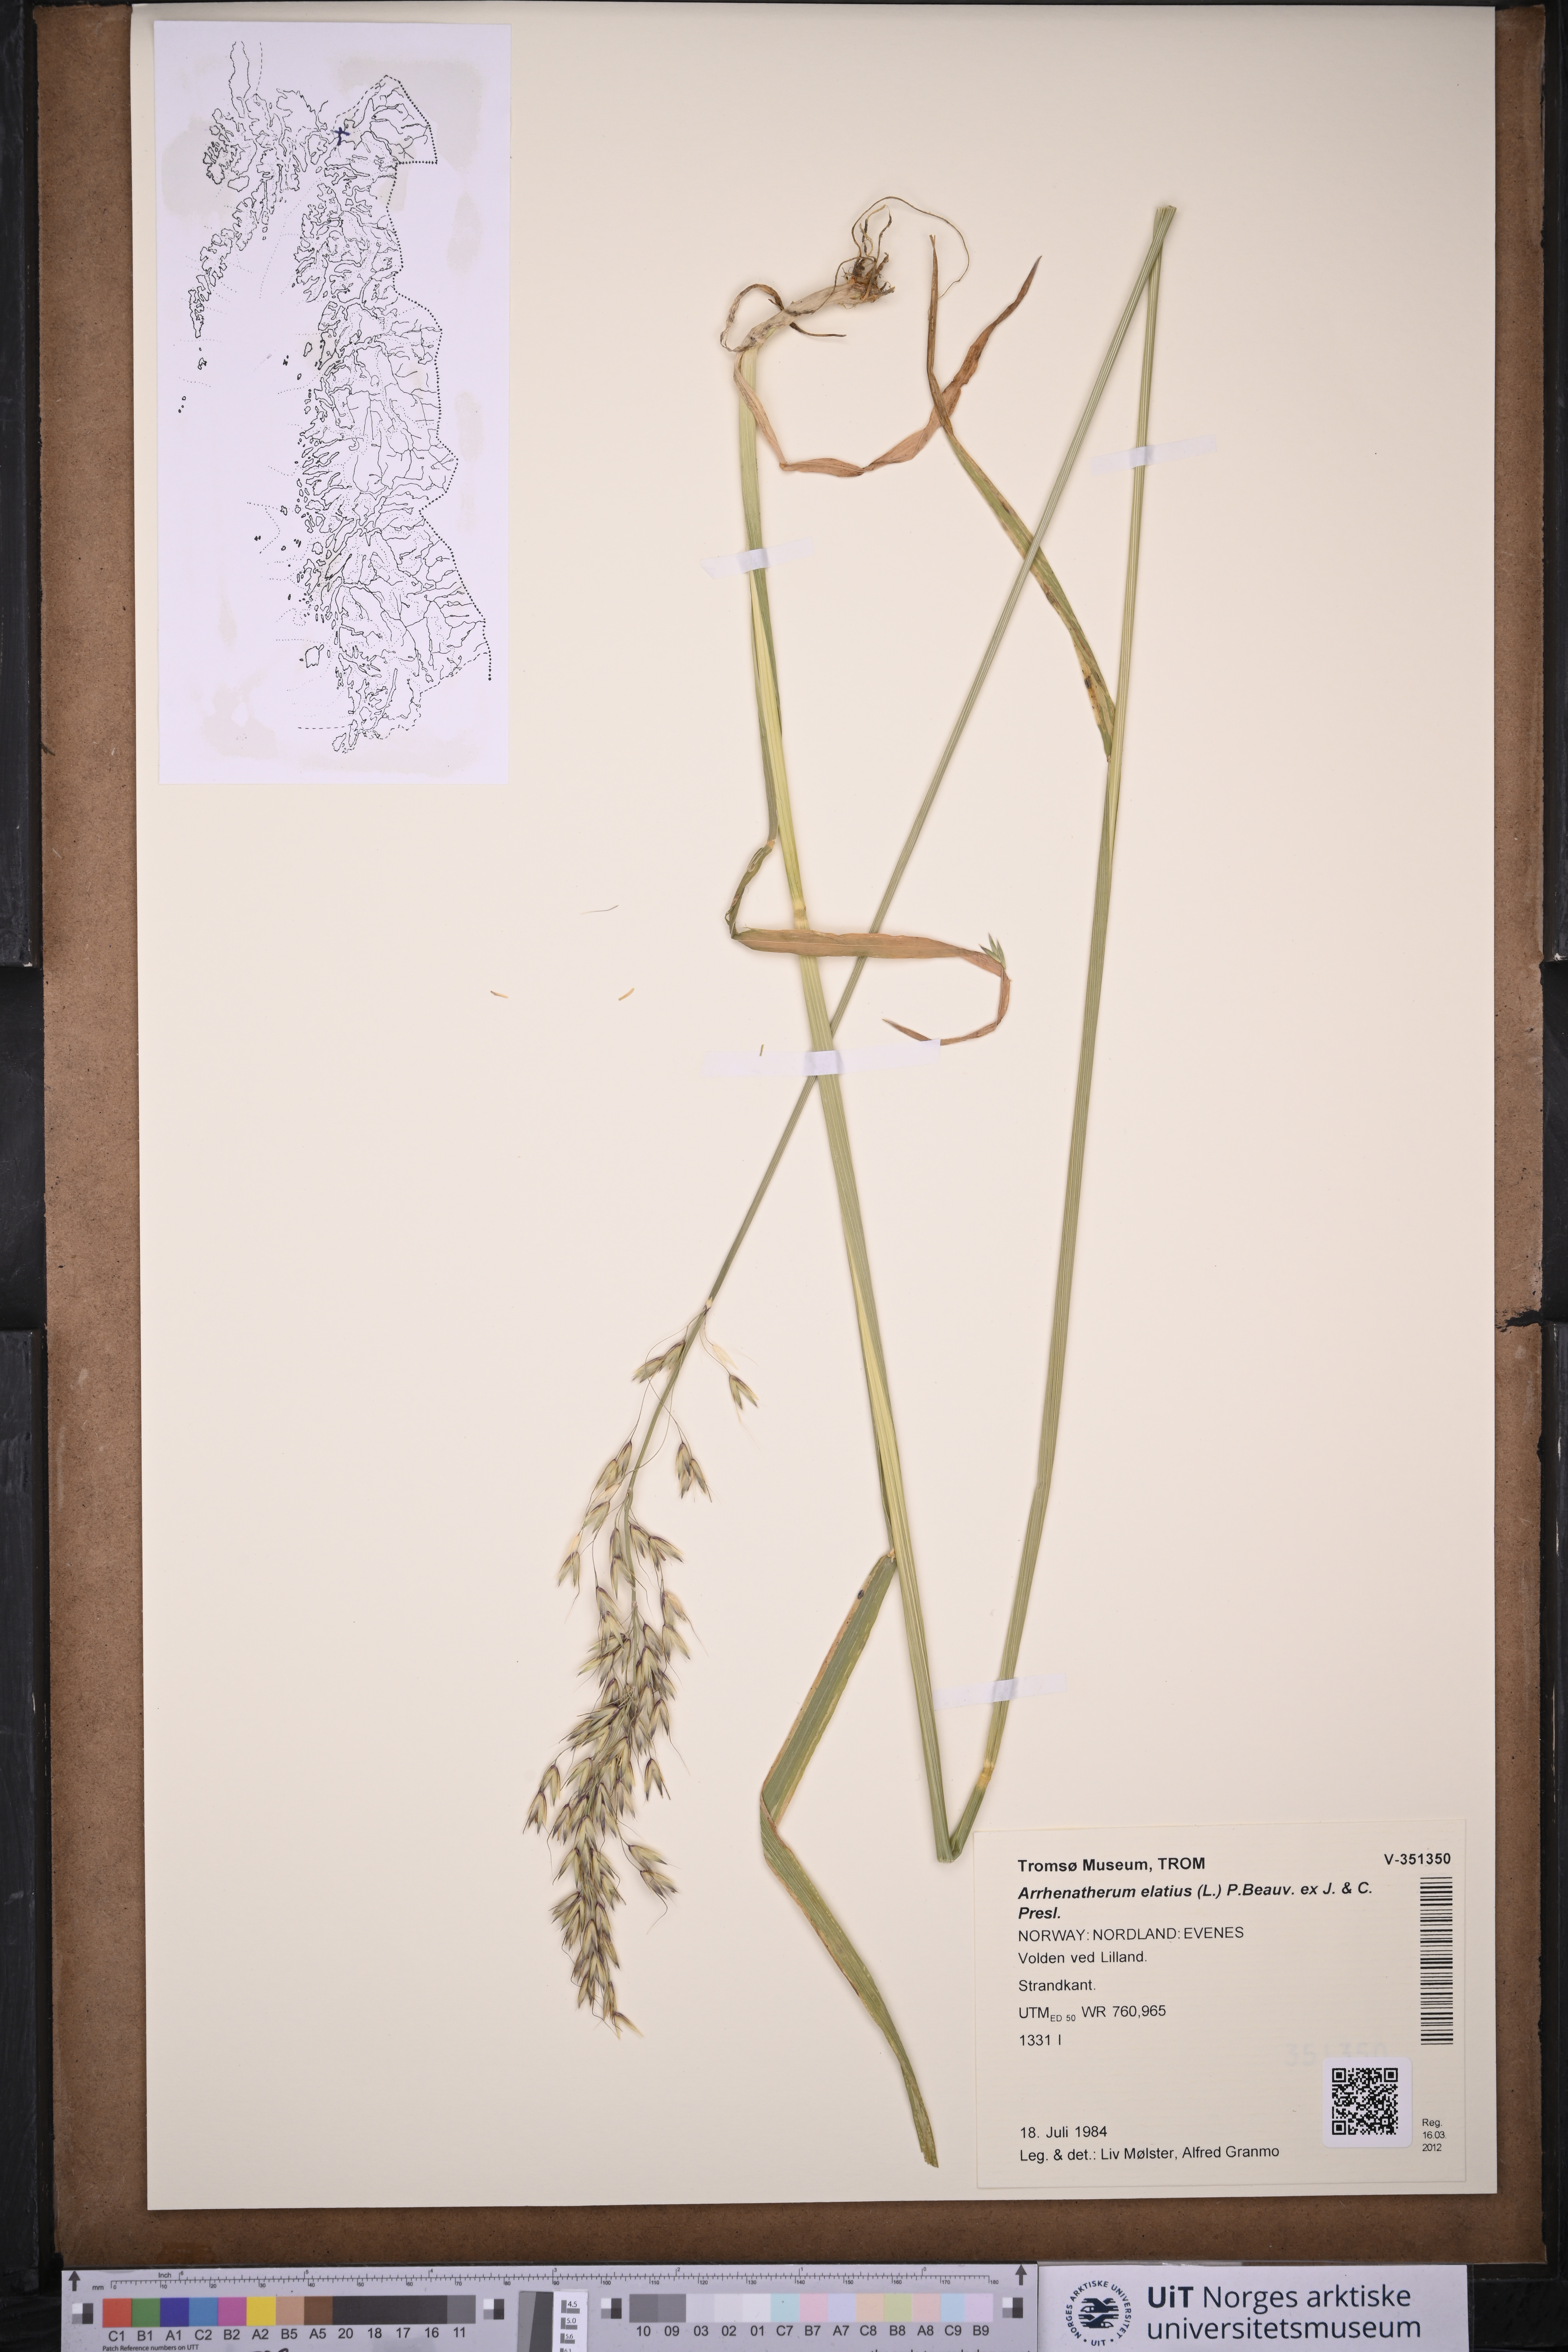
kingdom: Plantae
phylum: Tracheophyta
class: Liliopsida
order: Poales
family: Poaceae
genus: Arrhenatherum
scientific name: Arrhenatherum elatius
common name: Tall oatgrass
